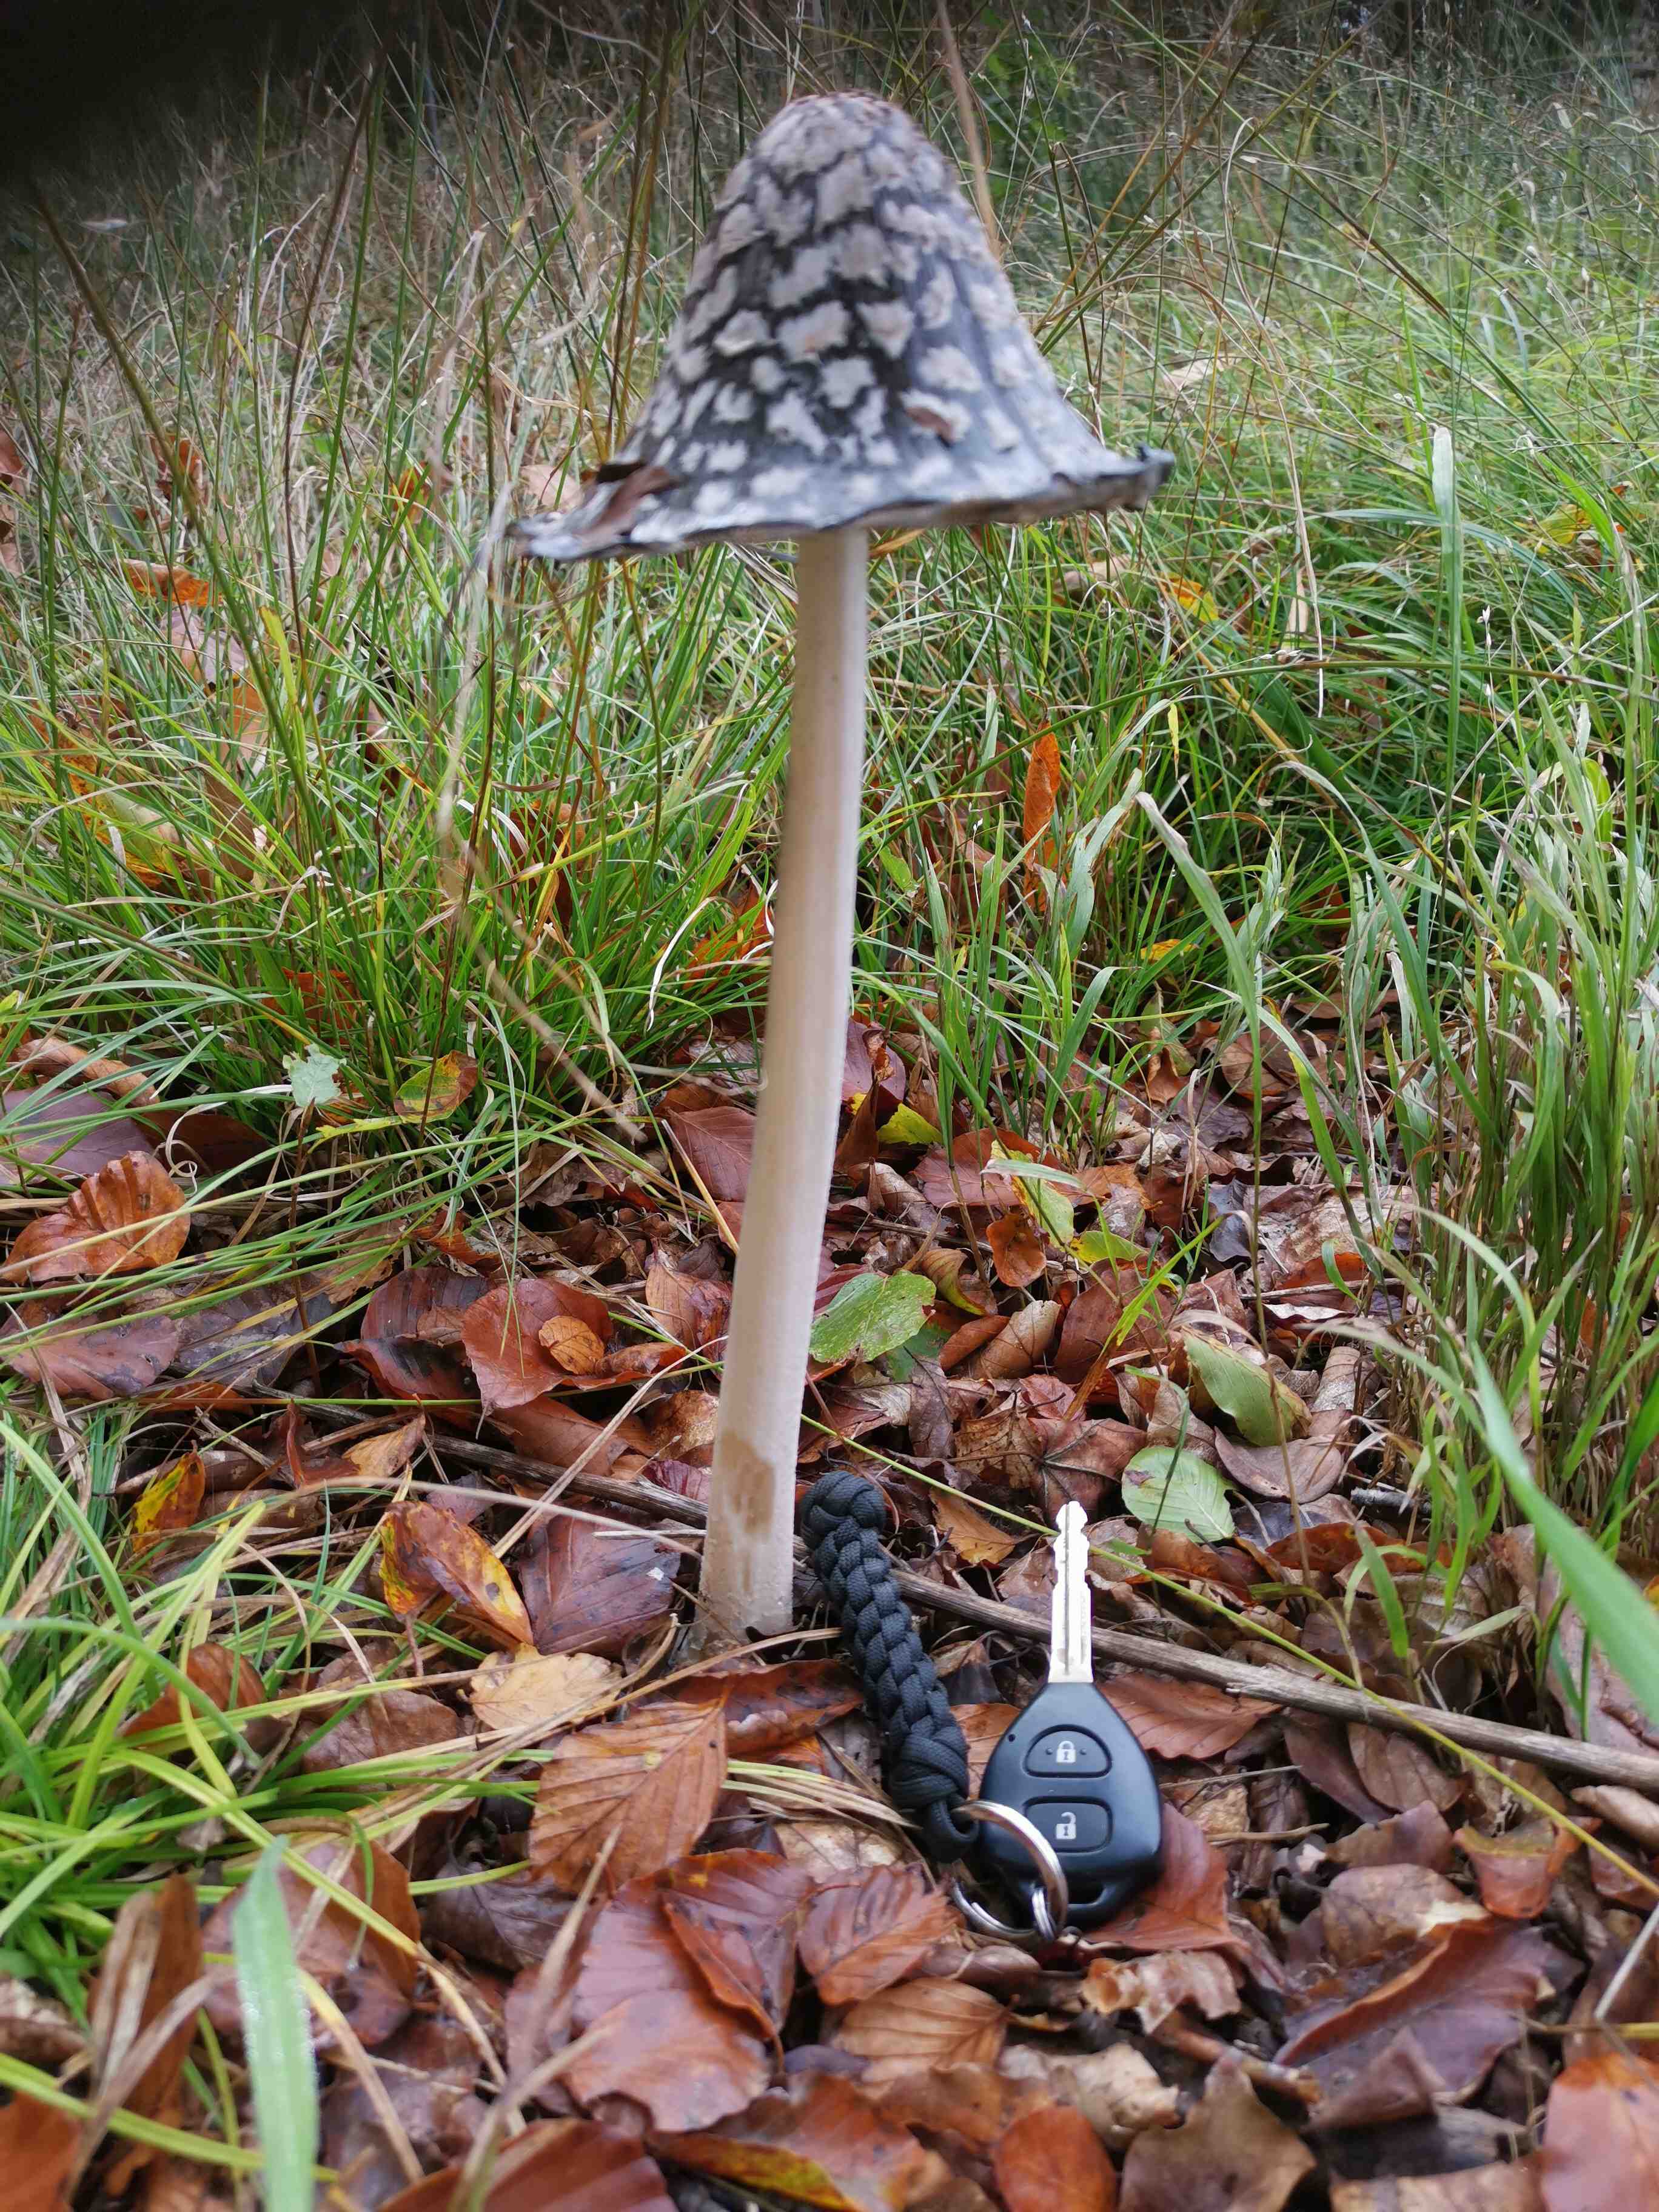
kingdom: Fungi
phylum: Basidiomycota
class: Agaricomycetes
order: Agaricales
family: Psathyrellaceae
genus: Coprinopsis
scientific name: Coprinopsis picacea
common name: skade-blækhat
